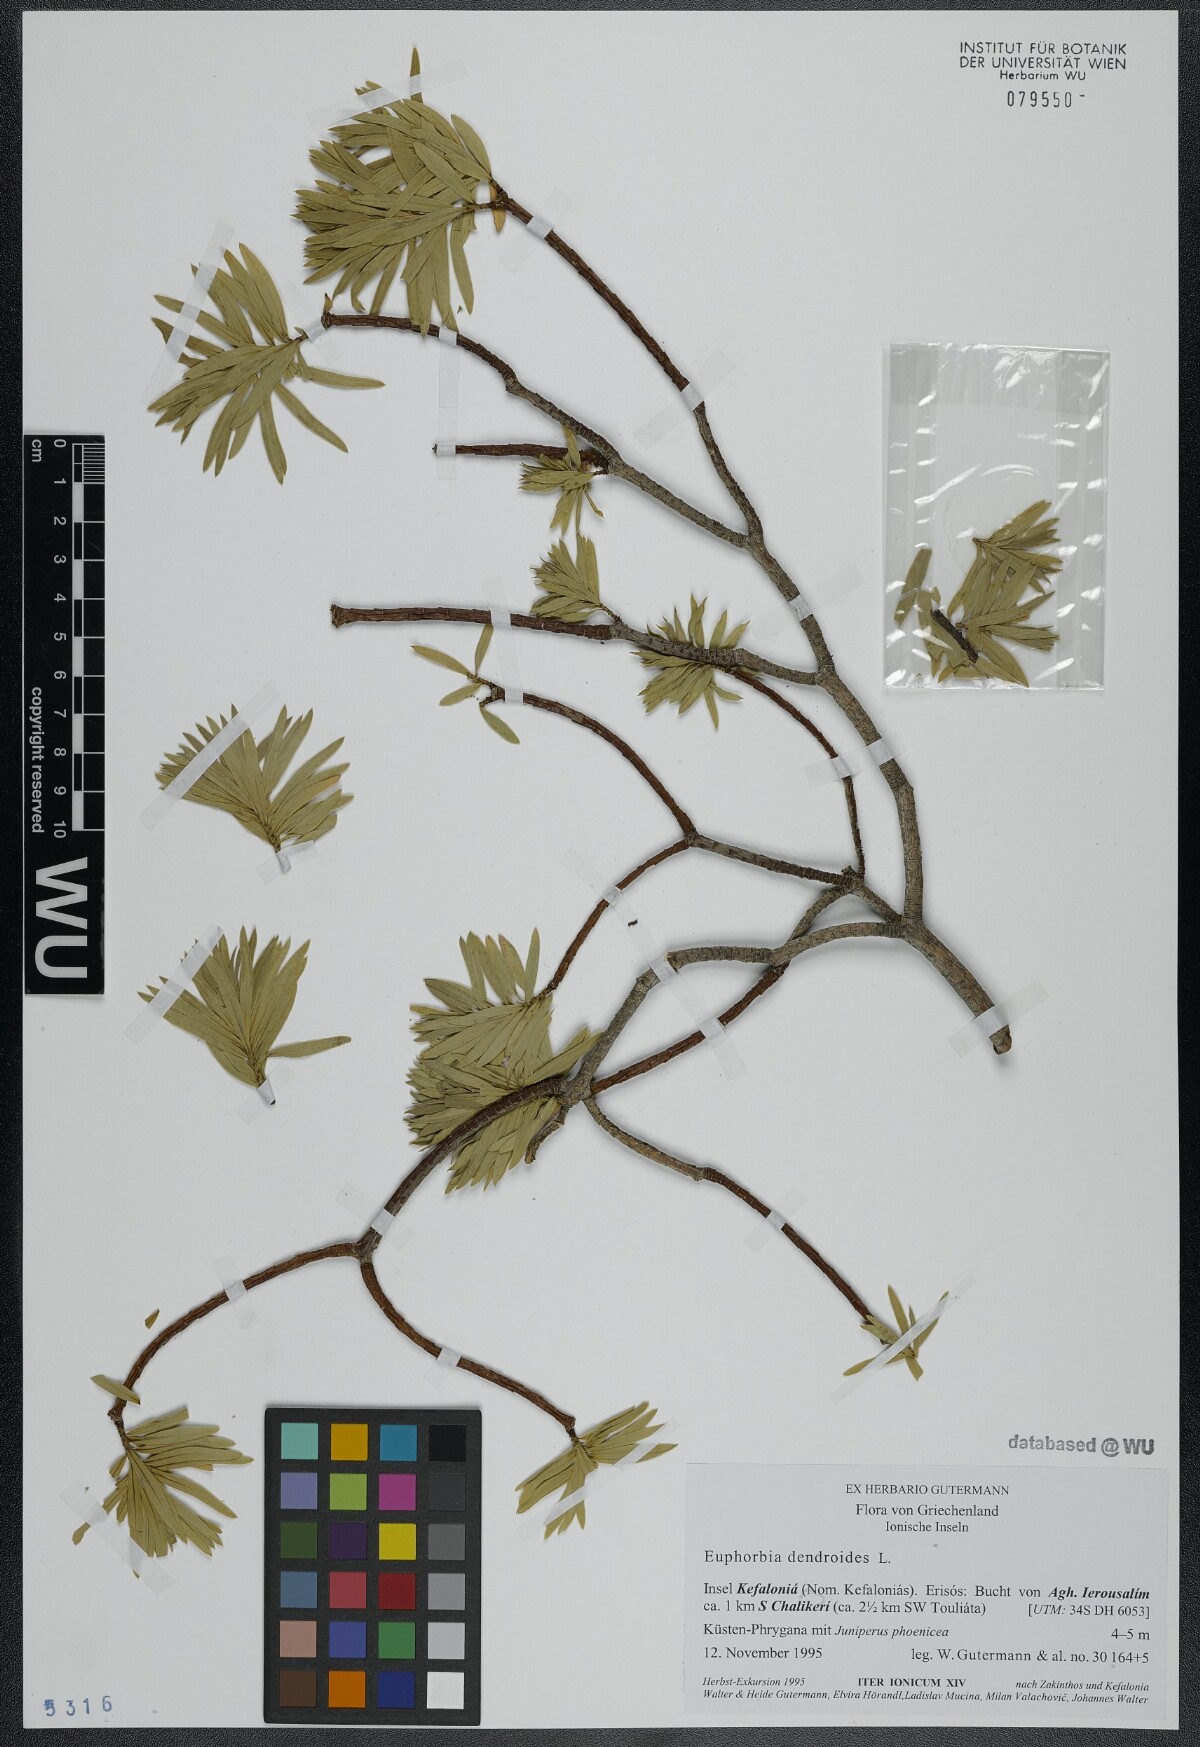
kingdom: Plantae
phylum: Tracheophyta
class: Magnoliopsida
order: Malpighiales
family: Euphorbiaceae
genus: Euphorbia
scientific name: Euphorbia dendroides
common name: Tree spurge
